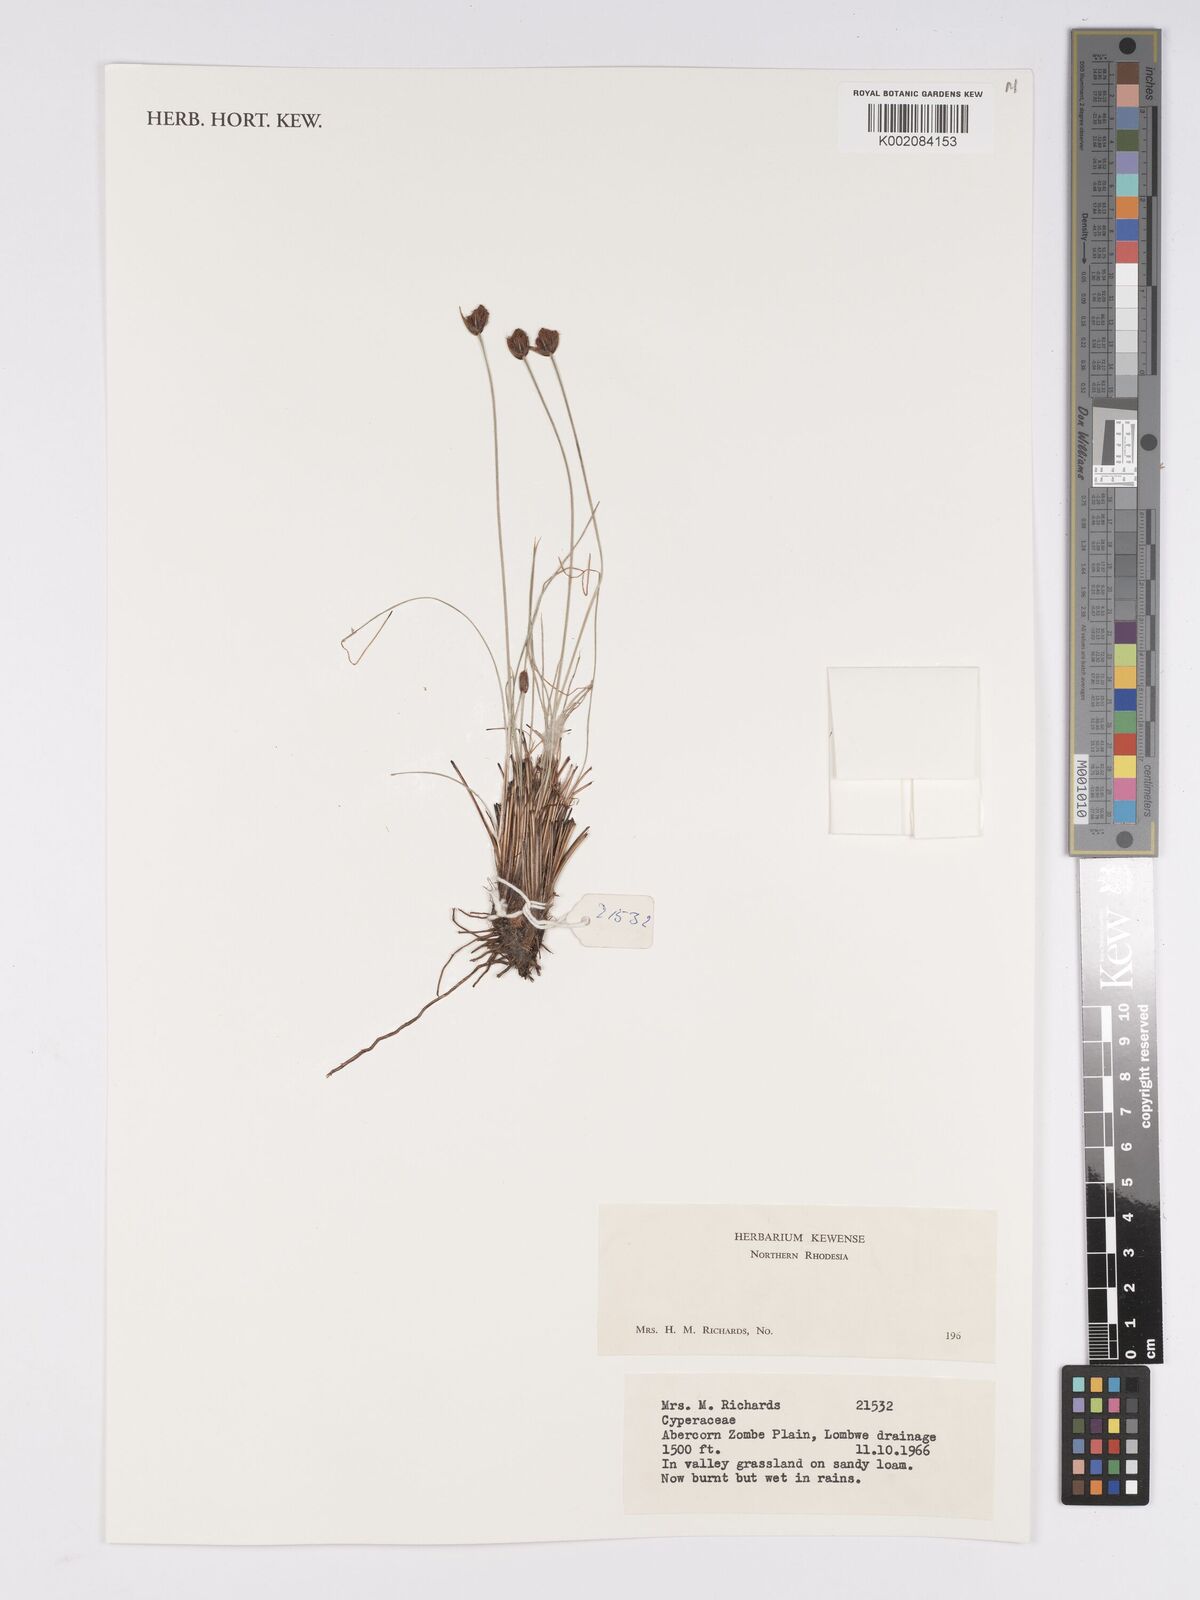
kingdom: Plantae
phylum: Tracheophyta
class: Liliopsida
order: Poales
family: Cyperaceae
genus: Bulbostylis
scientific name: Bulbostylis
